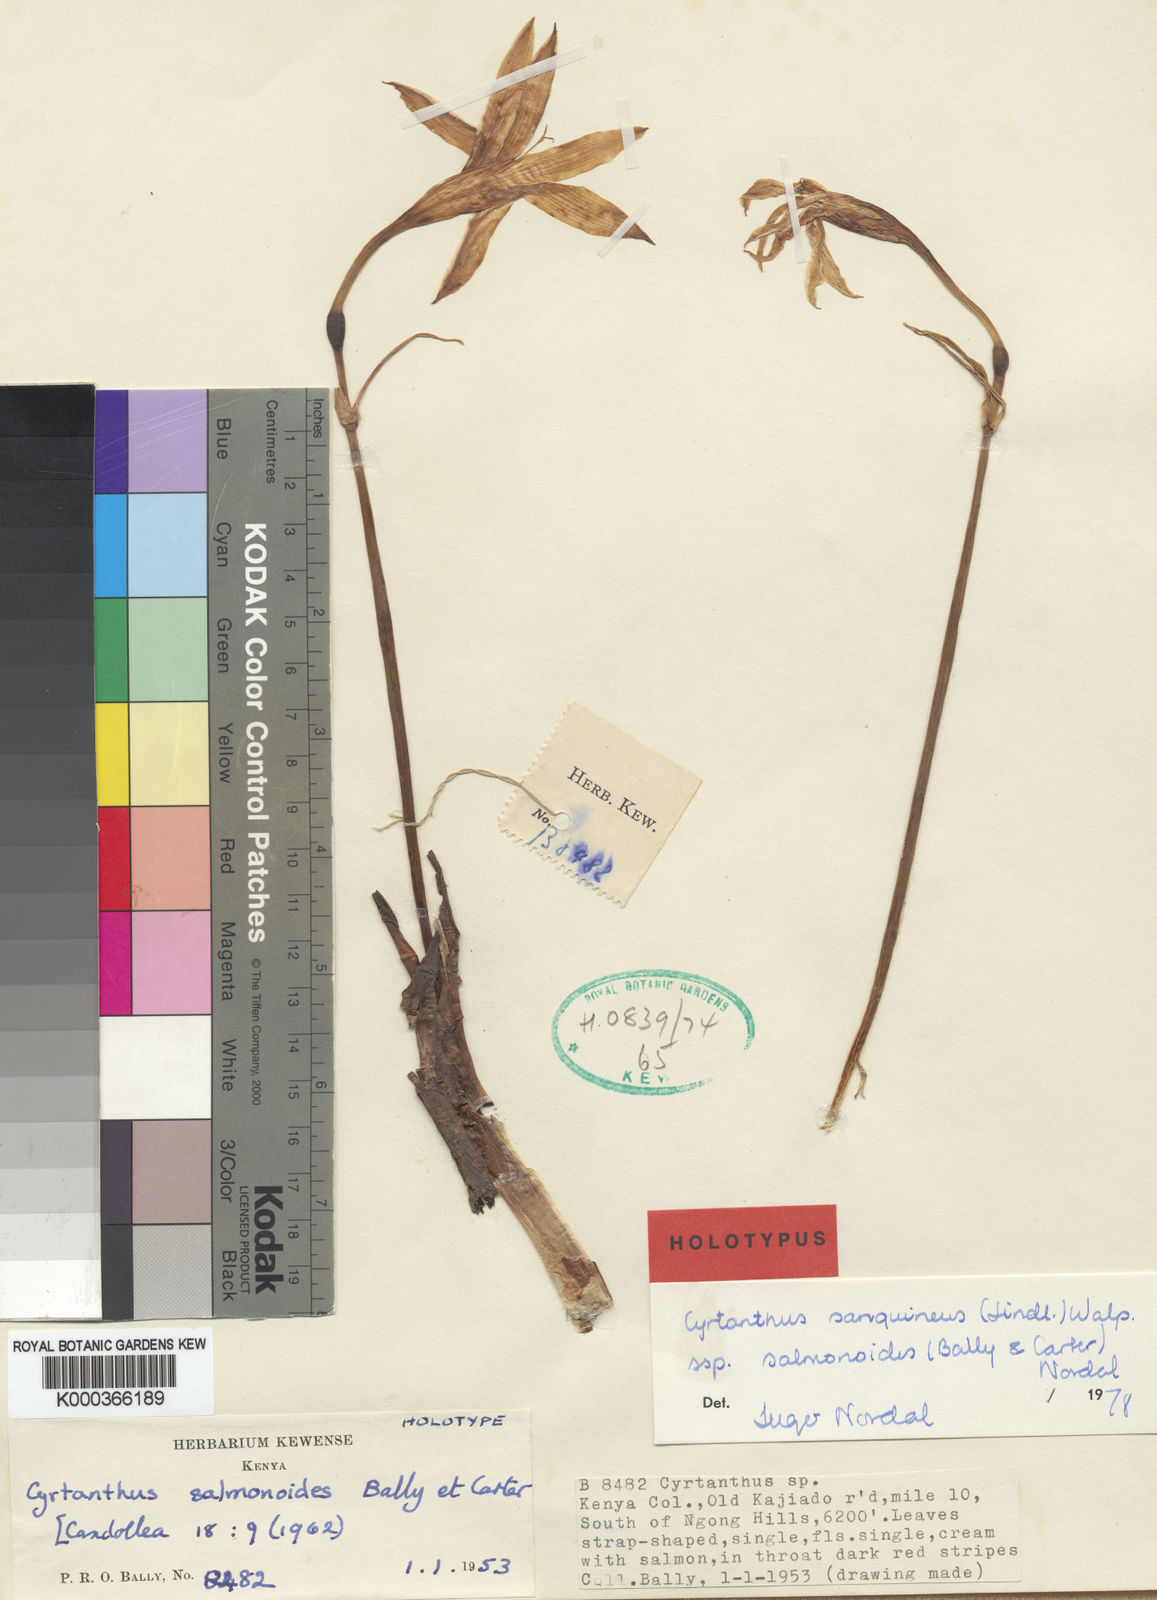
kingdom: Plantae
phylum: Tracheophyta
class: Liliopsida
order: Asparagales
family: Amaryllidaceae
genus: Cyrtanthus
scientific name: Cyrtanthus
